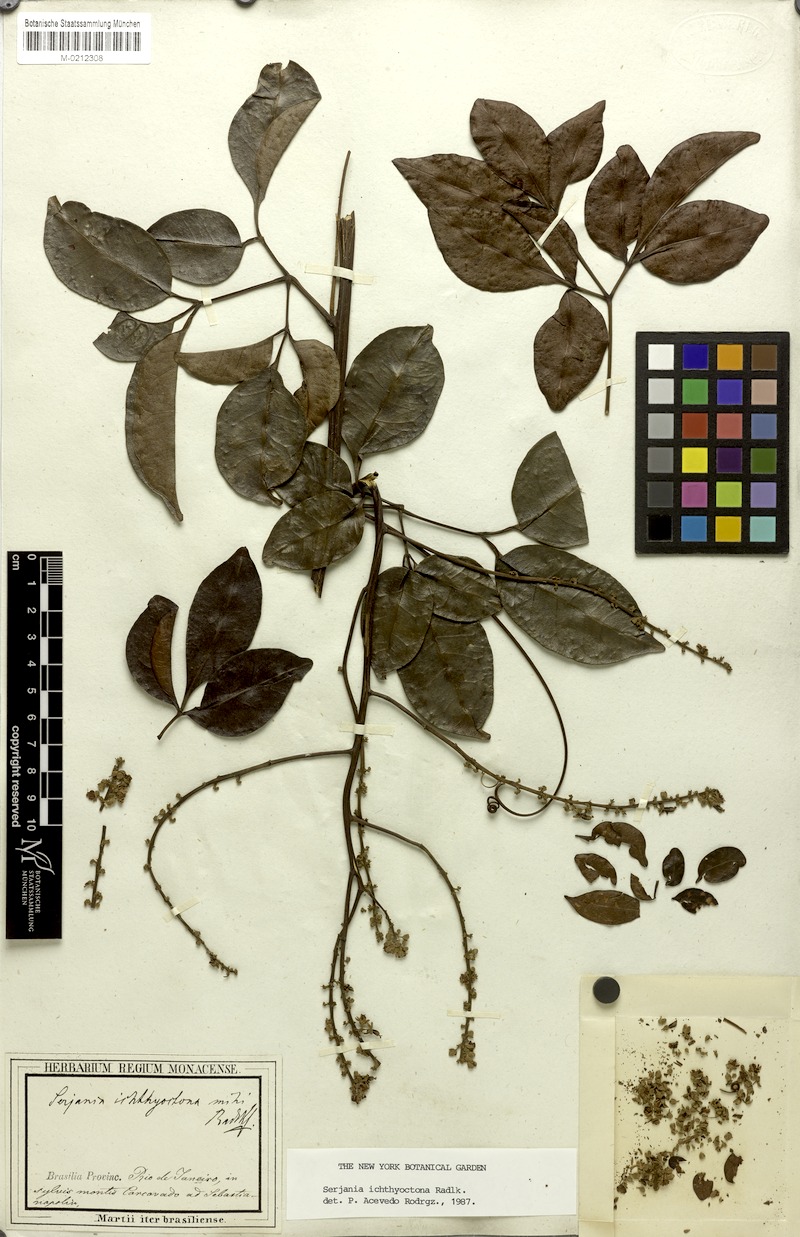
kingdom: Plantae
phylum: Tracheophyta
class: Magnoliopsida
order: Sapindales
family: Sapindaceae
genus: Serjania
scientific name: Serjania ichthyctona
